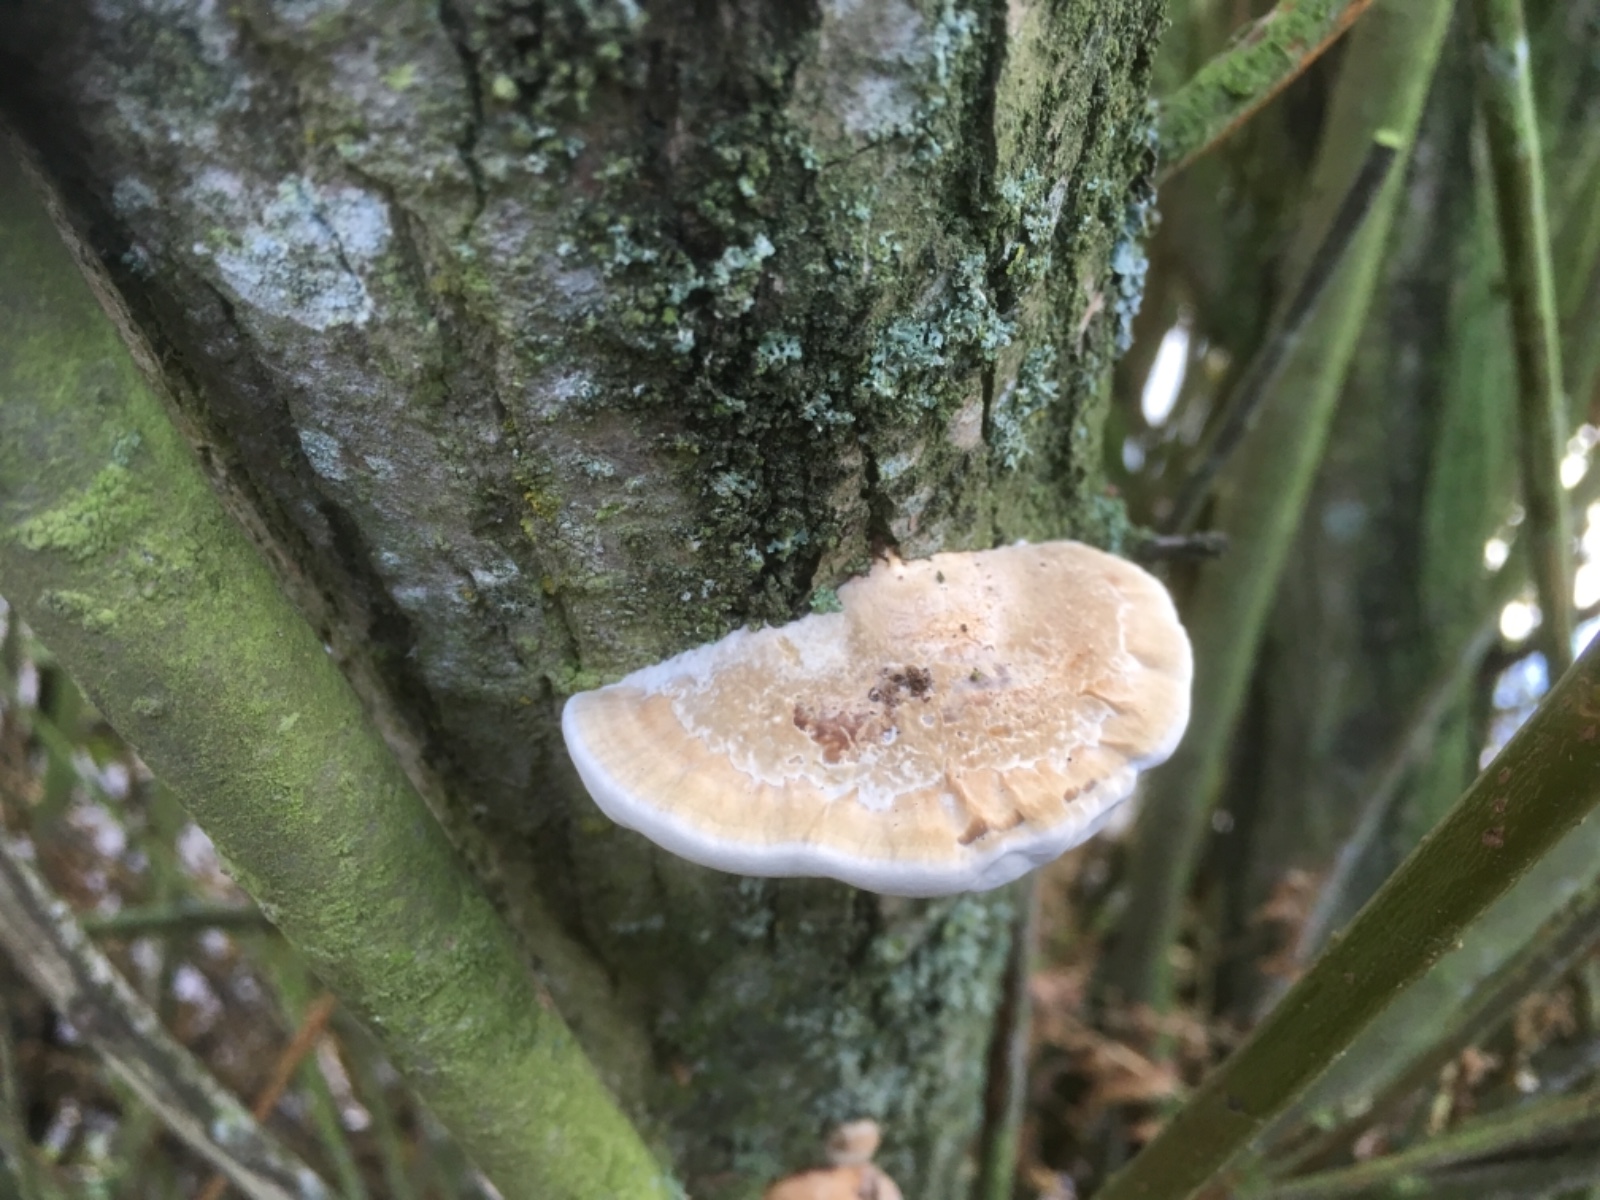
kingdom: Fungi
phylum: Basidiomycota
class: Agaricomycetes
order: Polyporales
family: Polyporaceae
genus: Daedaleopsis
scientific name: Daedaleopsis confragosa
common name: rødmende læderporesvamp
